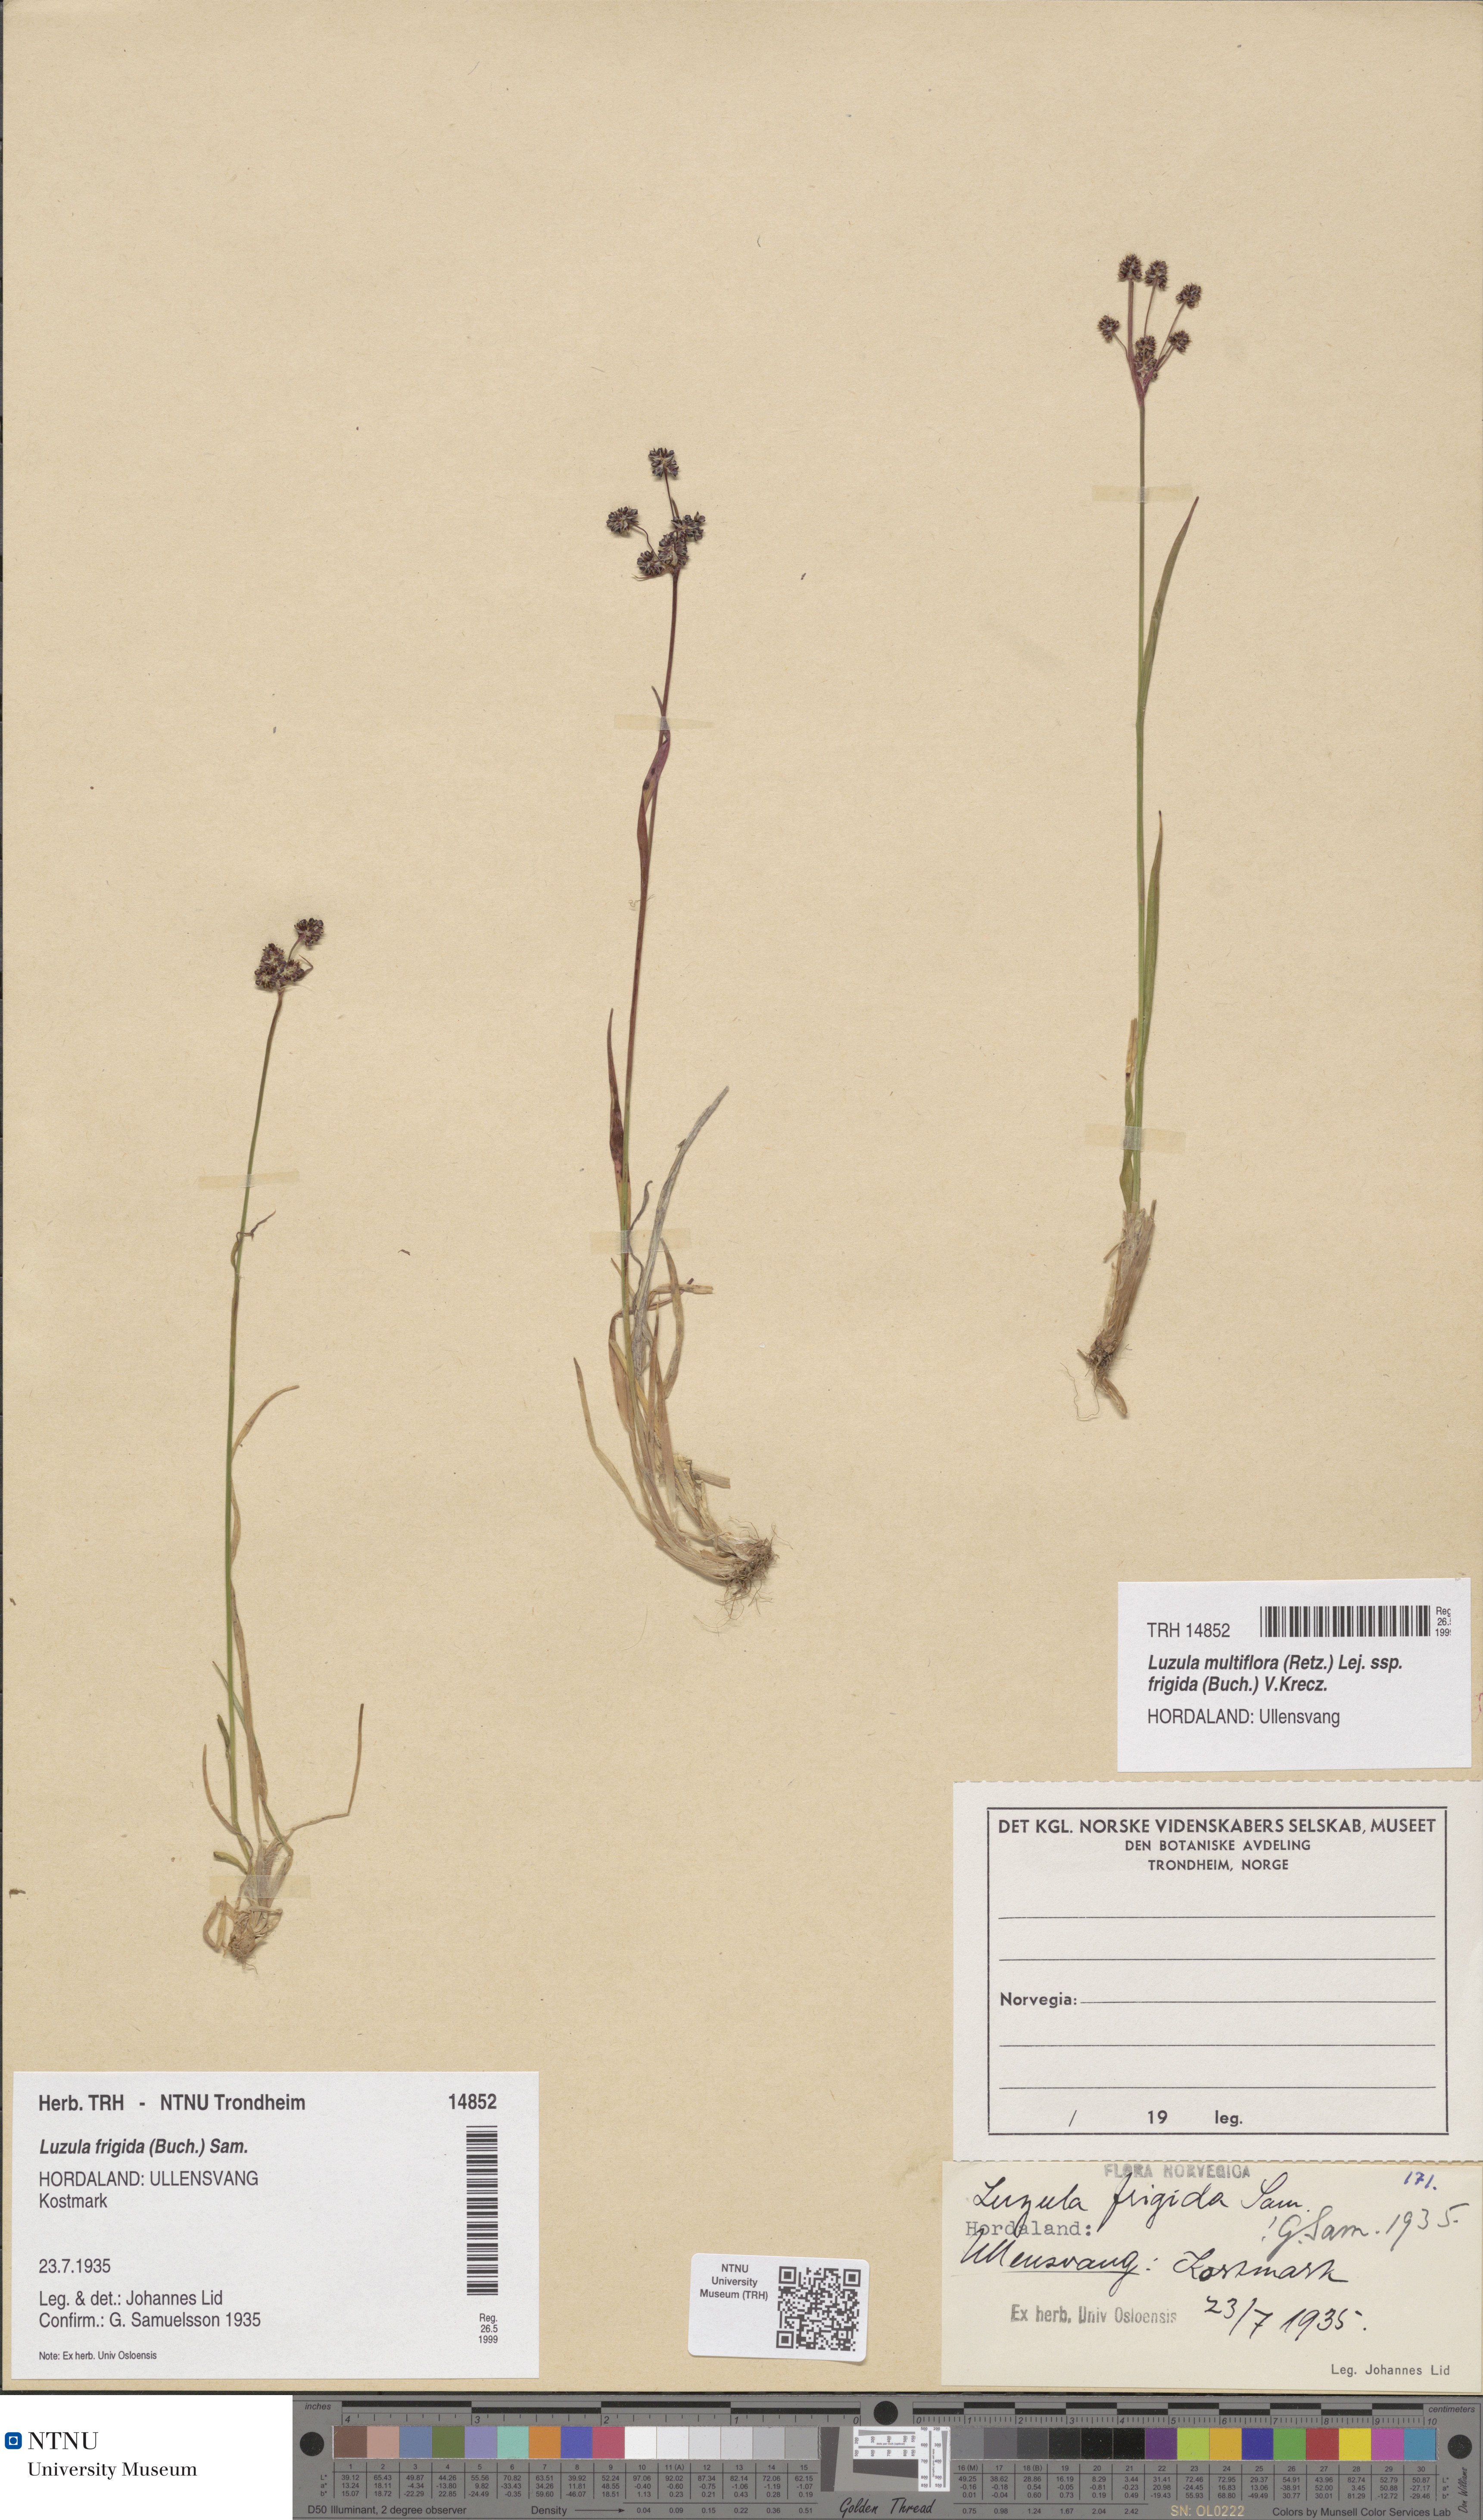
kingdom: Plantae
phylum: Tracheophyta
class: Liliopsida
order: Poales
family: Juncaceae
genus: Luzula
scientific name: Luzula multiflora
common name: Heath wood-rush
